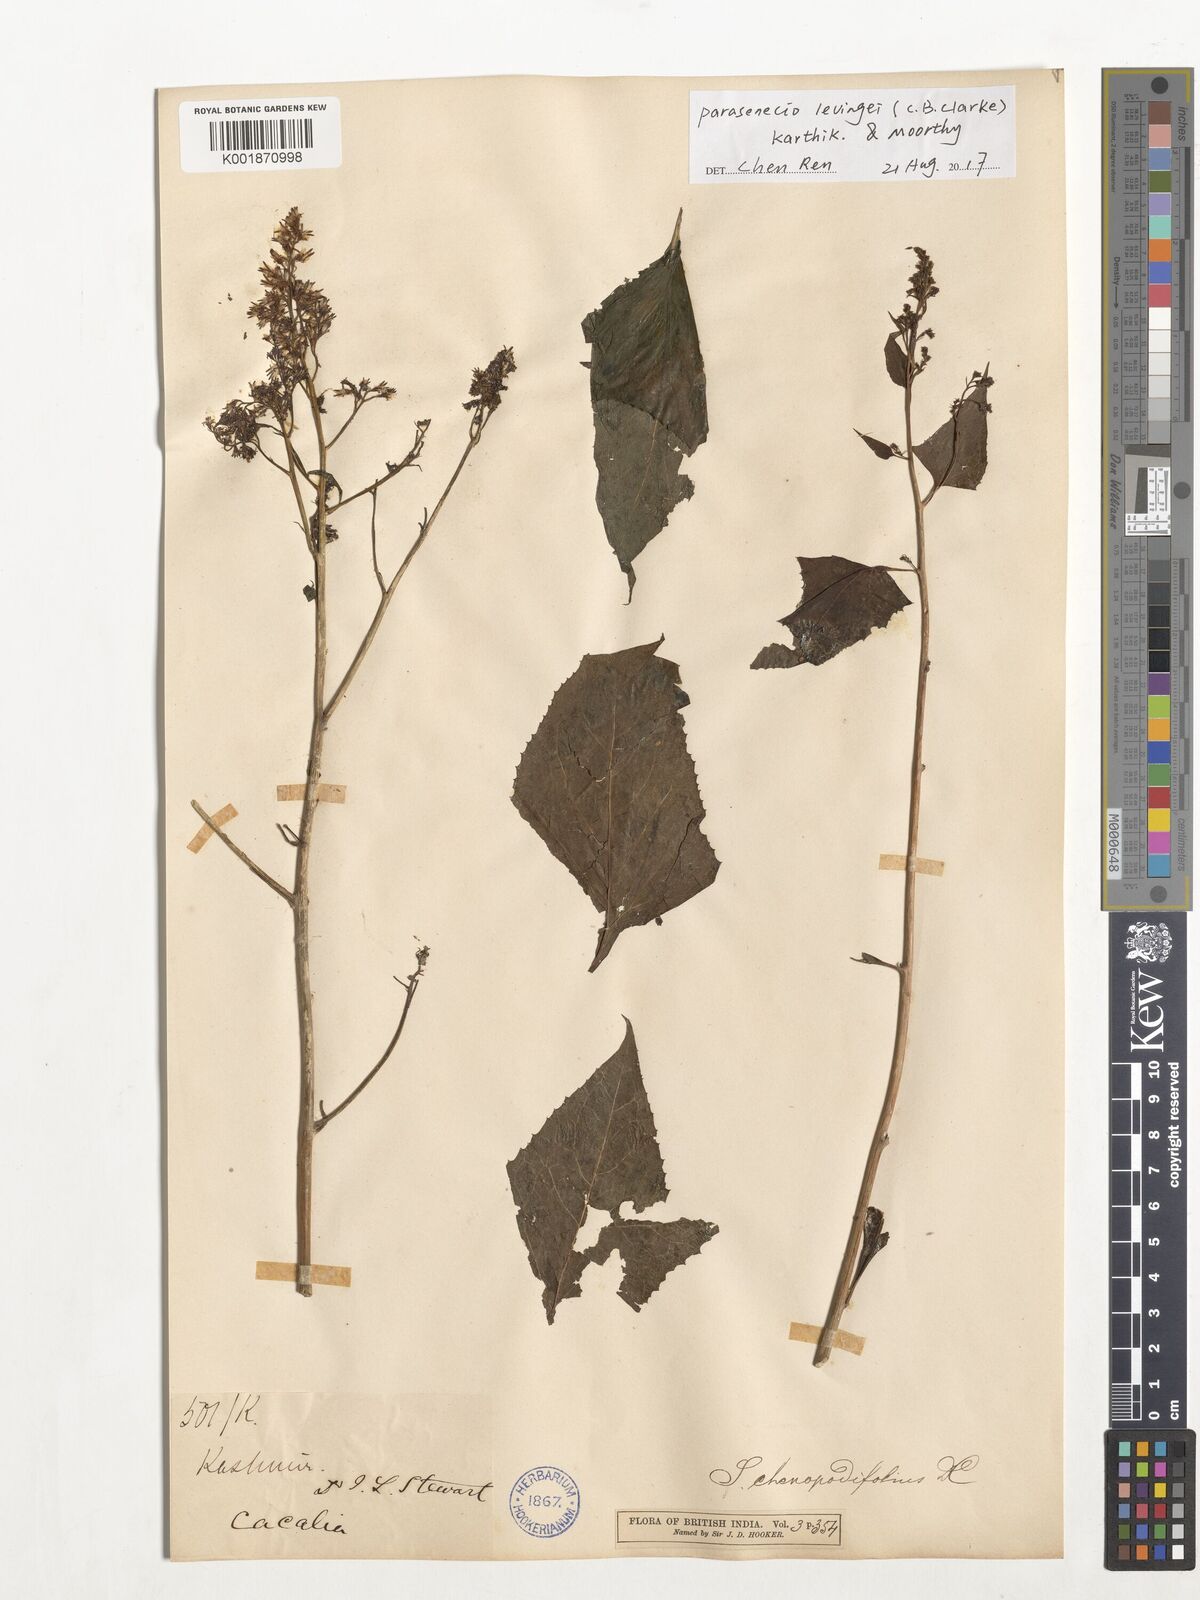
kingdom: Plantae
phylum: Tracheophyta
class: Magnoliopsida
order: Asterales
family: Asteraceae
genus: Parasenecio
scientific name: Parasenecio levingei
